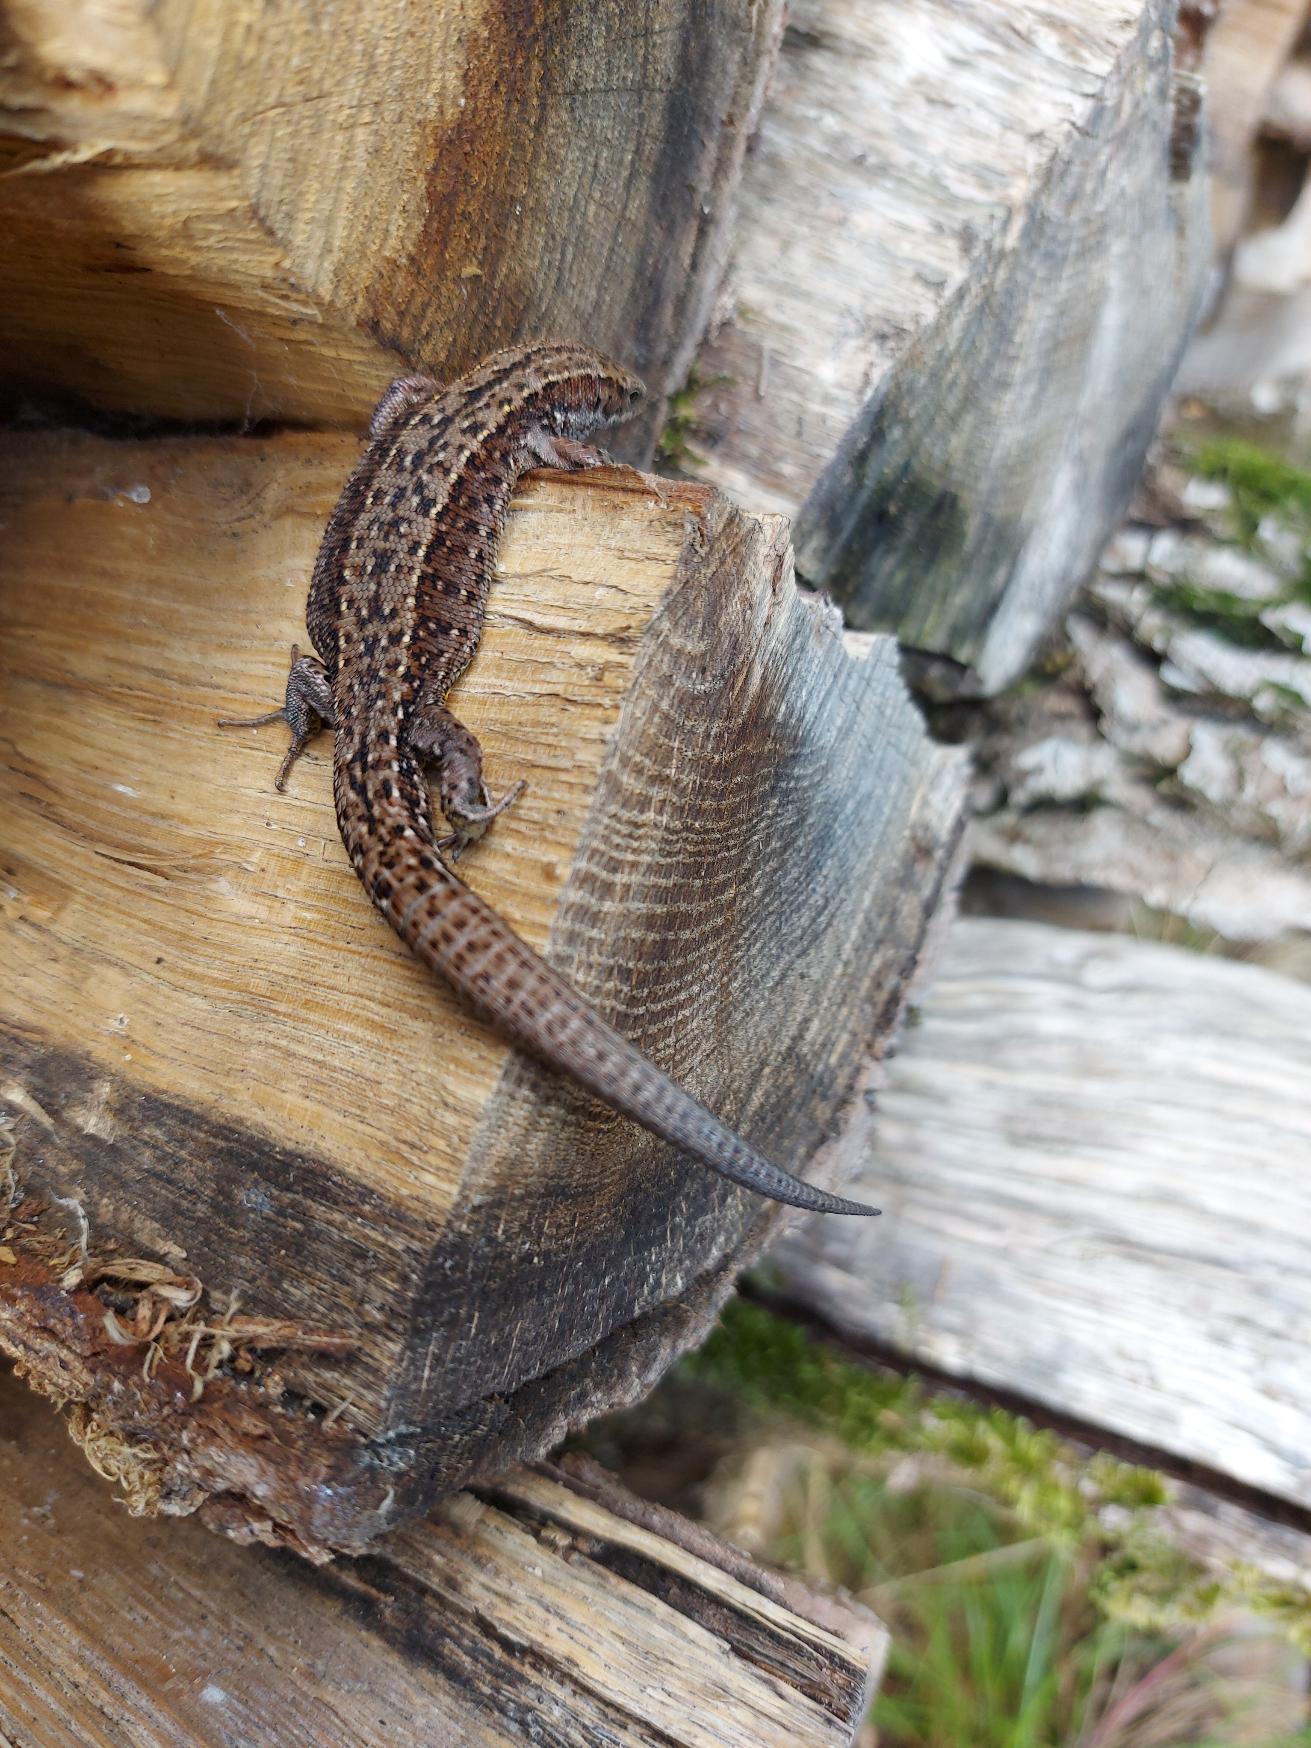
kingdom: Animalia
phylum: Chordata
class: Squamata
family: Lacertidae
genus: Zootoca
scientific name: Zootoca vivipara
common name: Skovfirben
